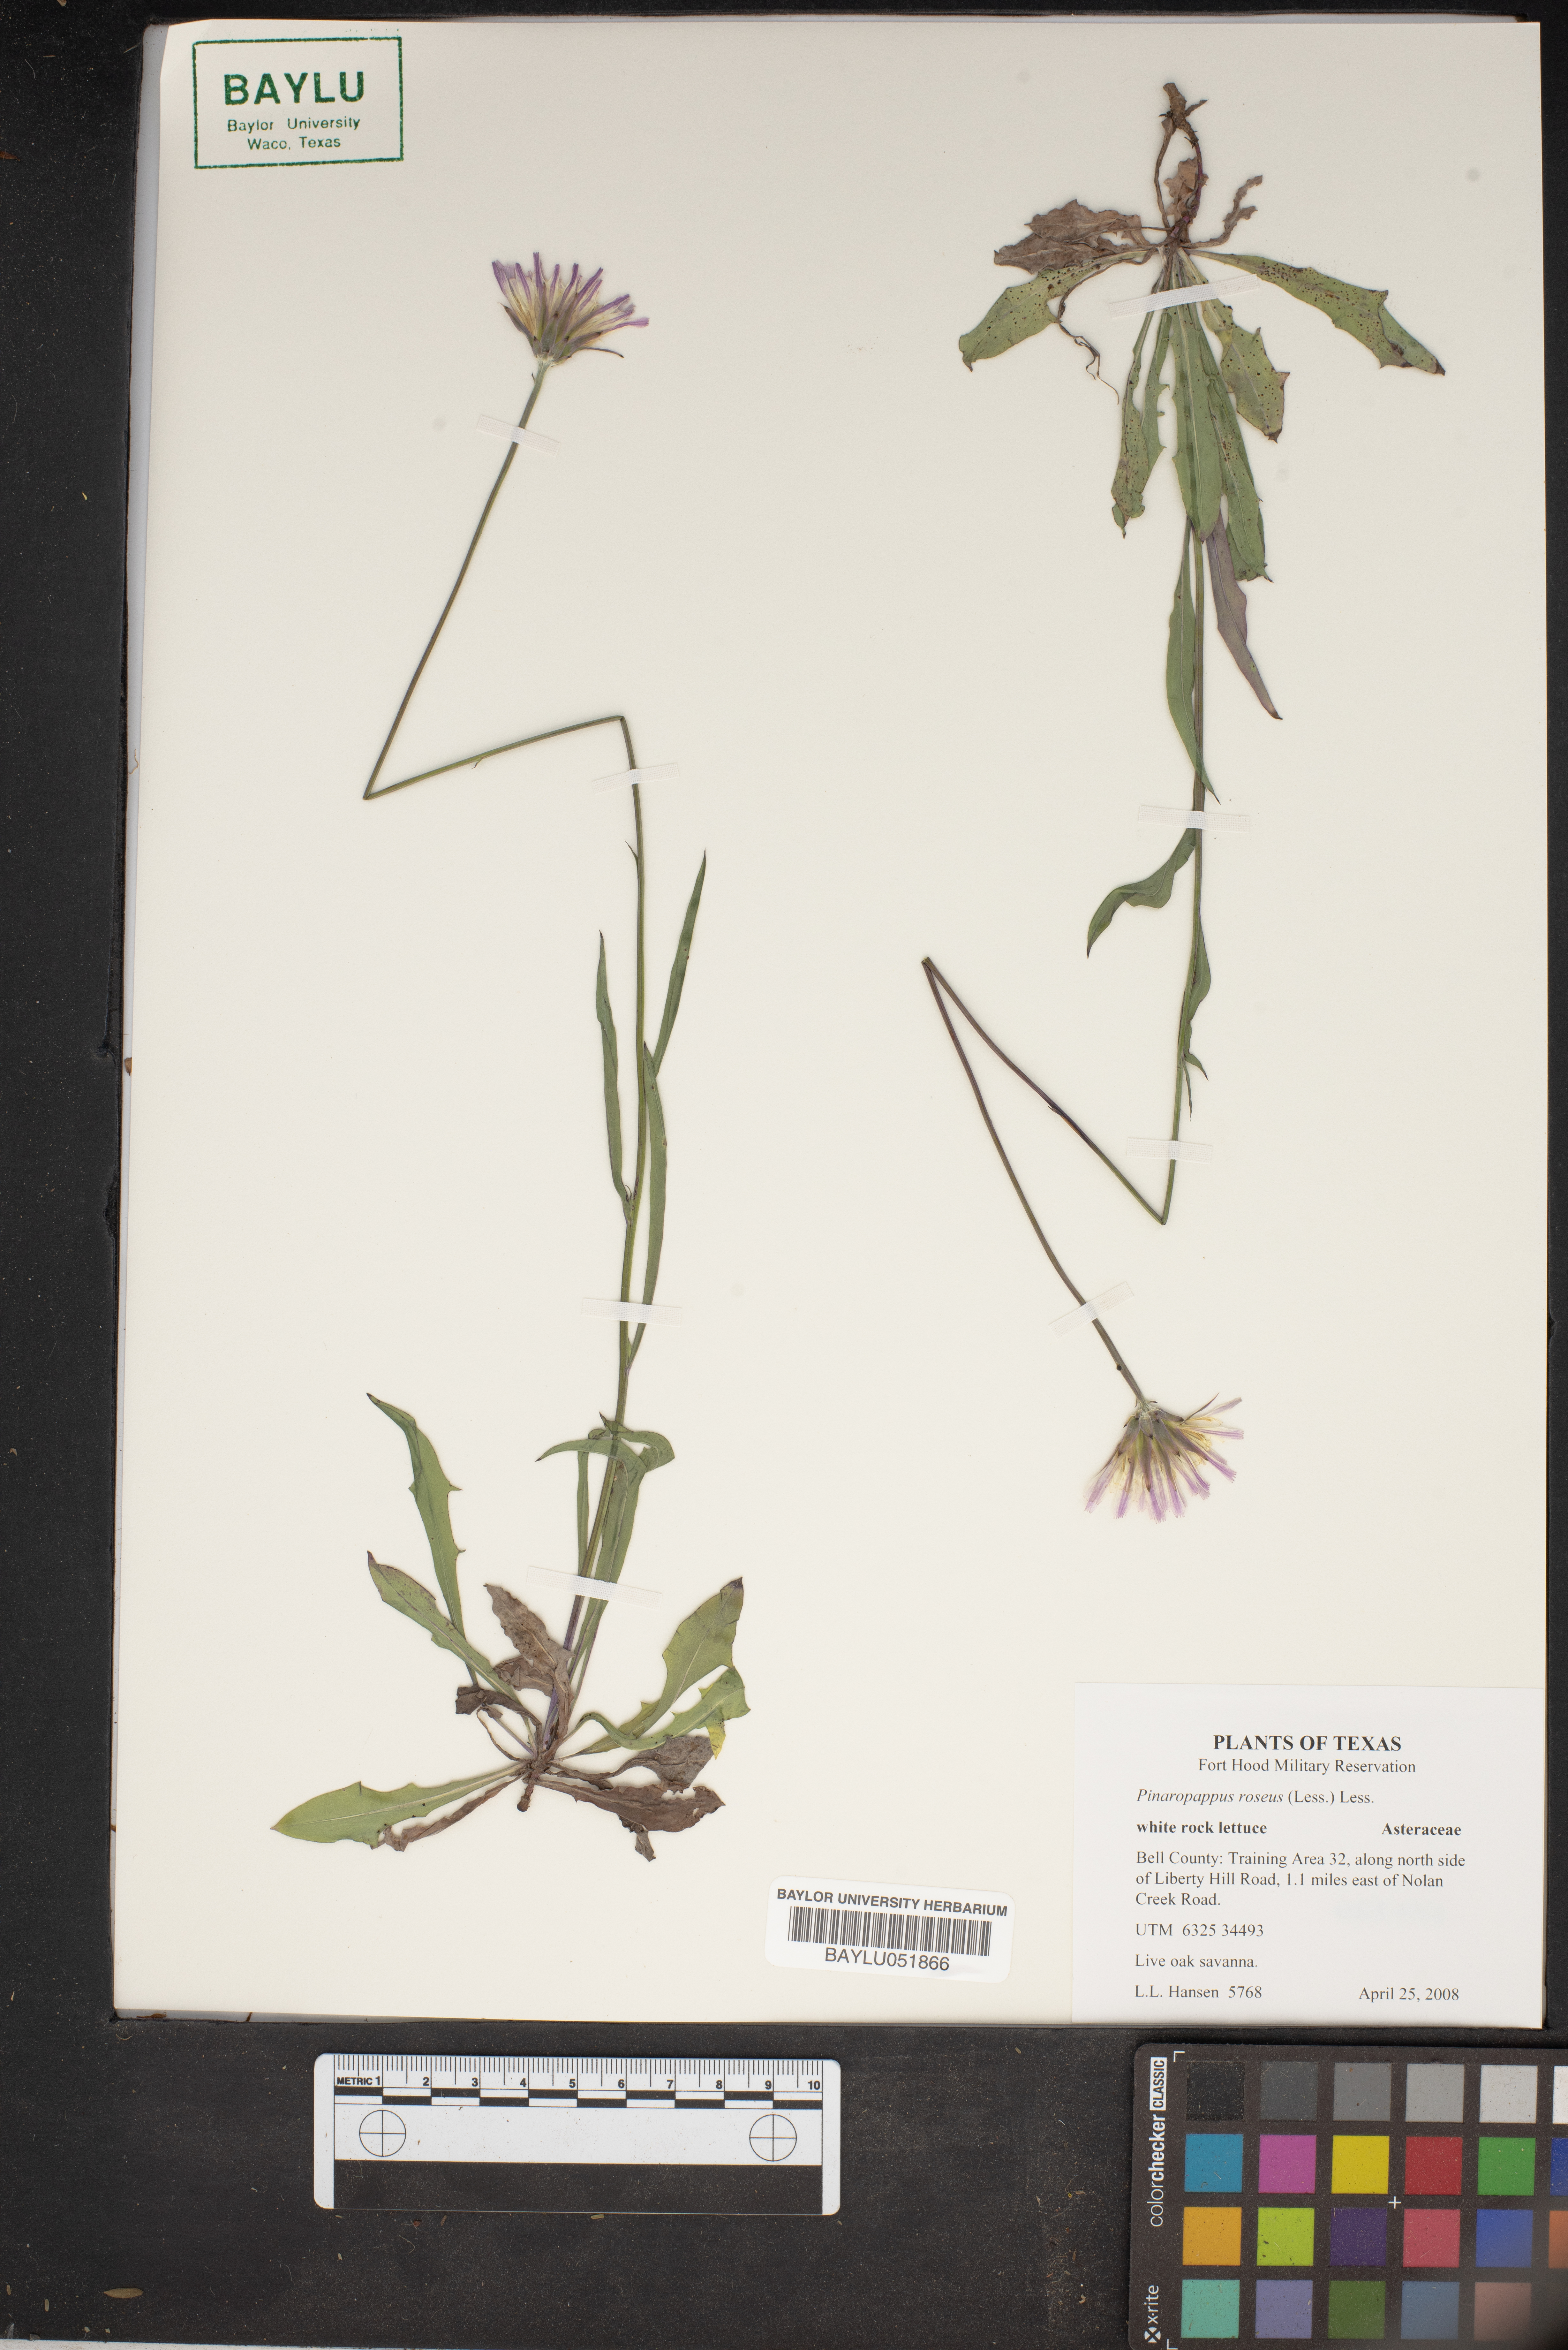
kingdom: Plantae
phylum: Tracheophyta
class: Magnoliopsida
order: Asterales
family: Asteraceae
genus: Pinaropappus
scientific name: Pinaropappus roseus
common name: Rock-lettuce
